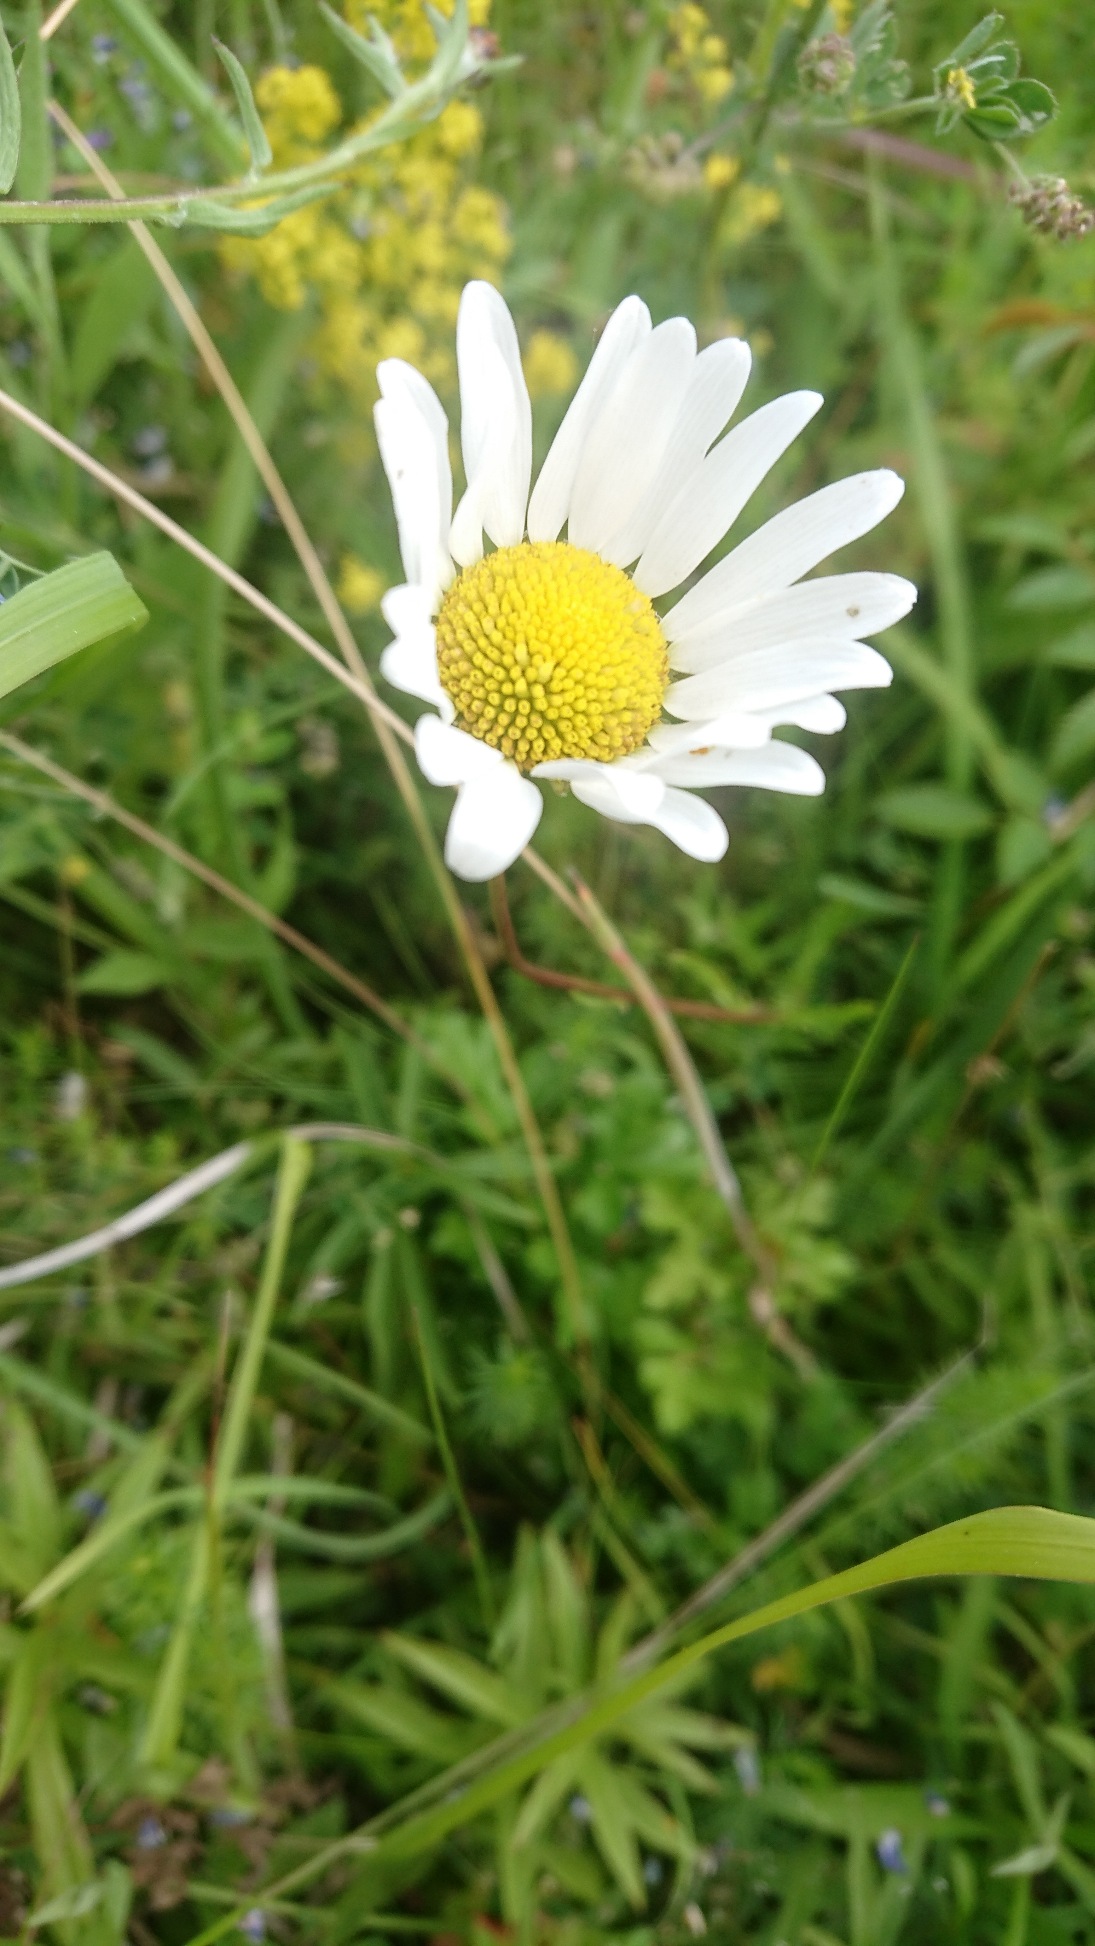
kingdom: Plantae
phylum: Tracheophyta
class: Magnoliopsida
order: Asterales
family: Asteraceae
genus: Leucanthemum
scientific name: Leucanthemum vulgare
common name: Hvid okseøje
